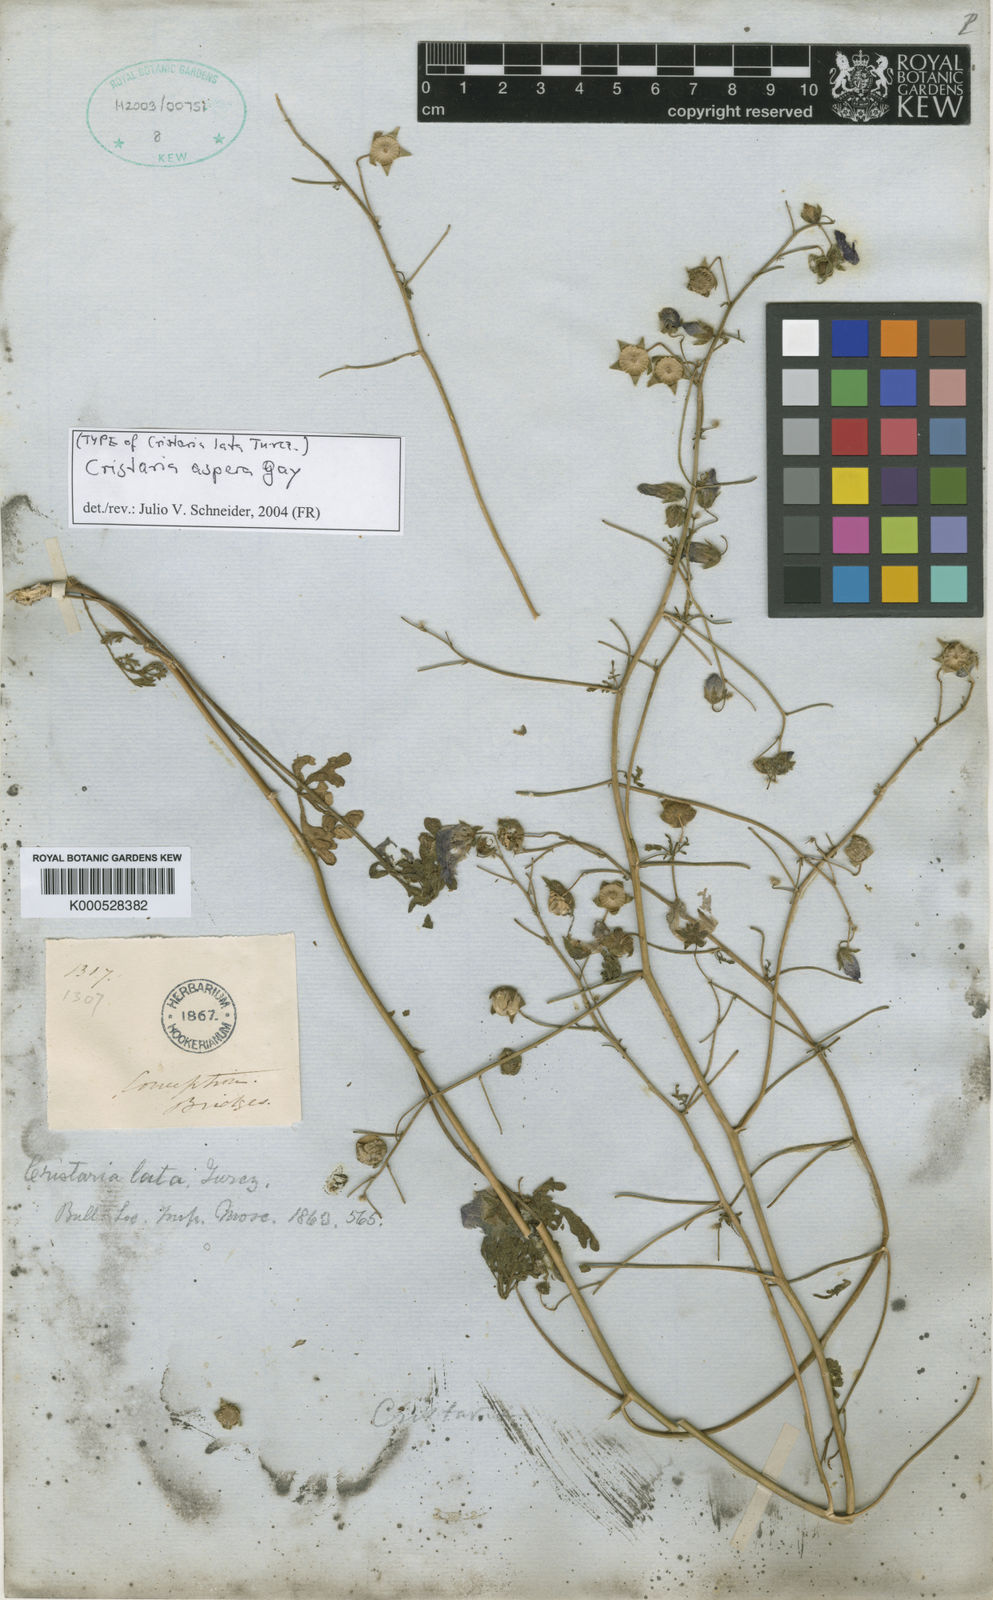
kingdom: Plantae
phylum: Tracheophyta
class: Magnoliopsida
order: Malvales
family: Malvaceae
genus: Cristaria
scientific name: Cristaria aspera
